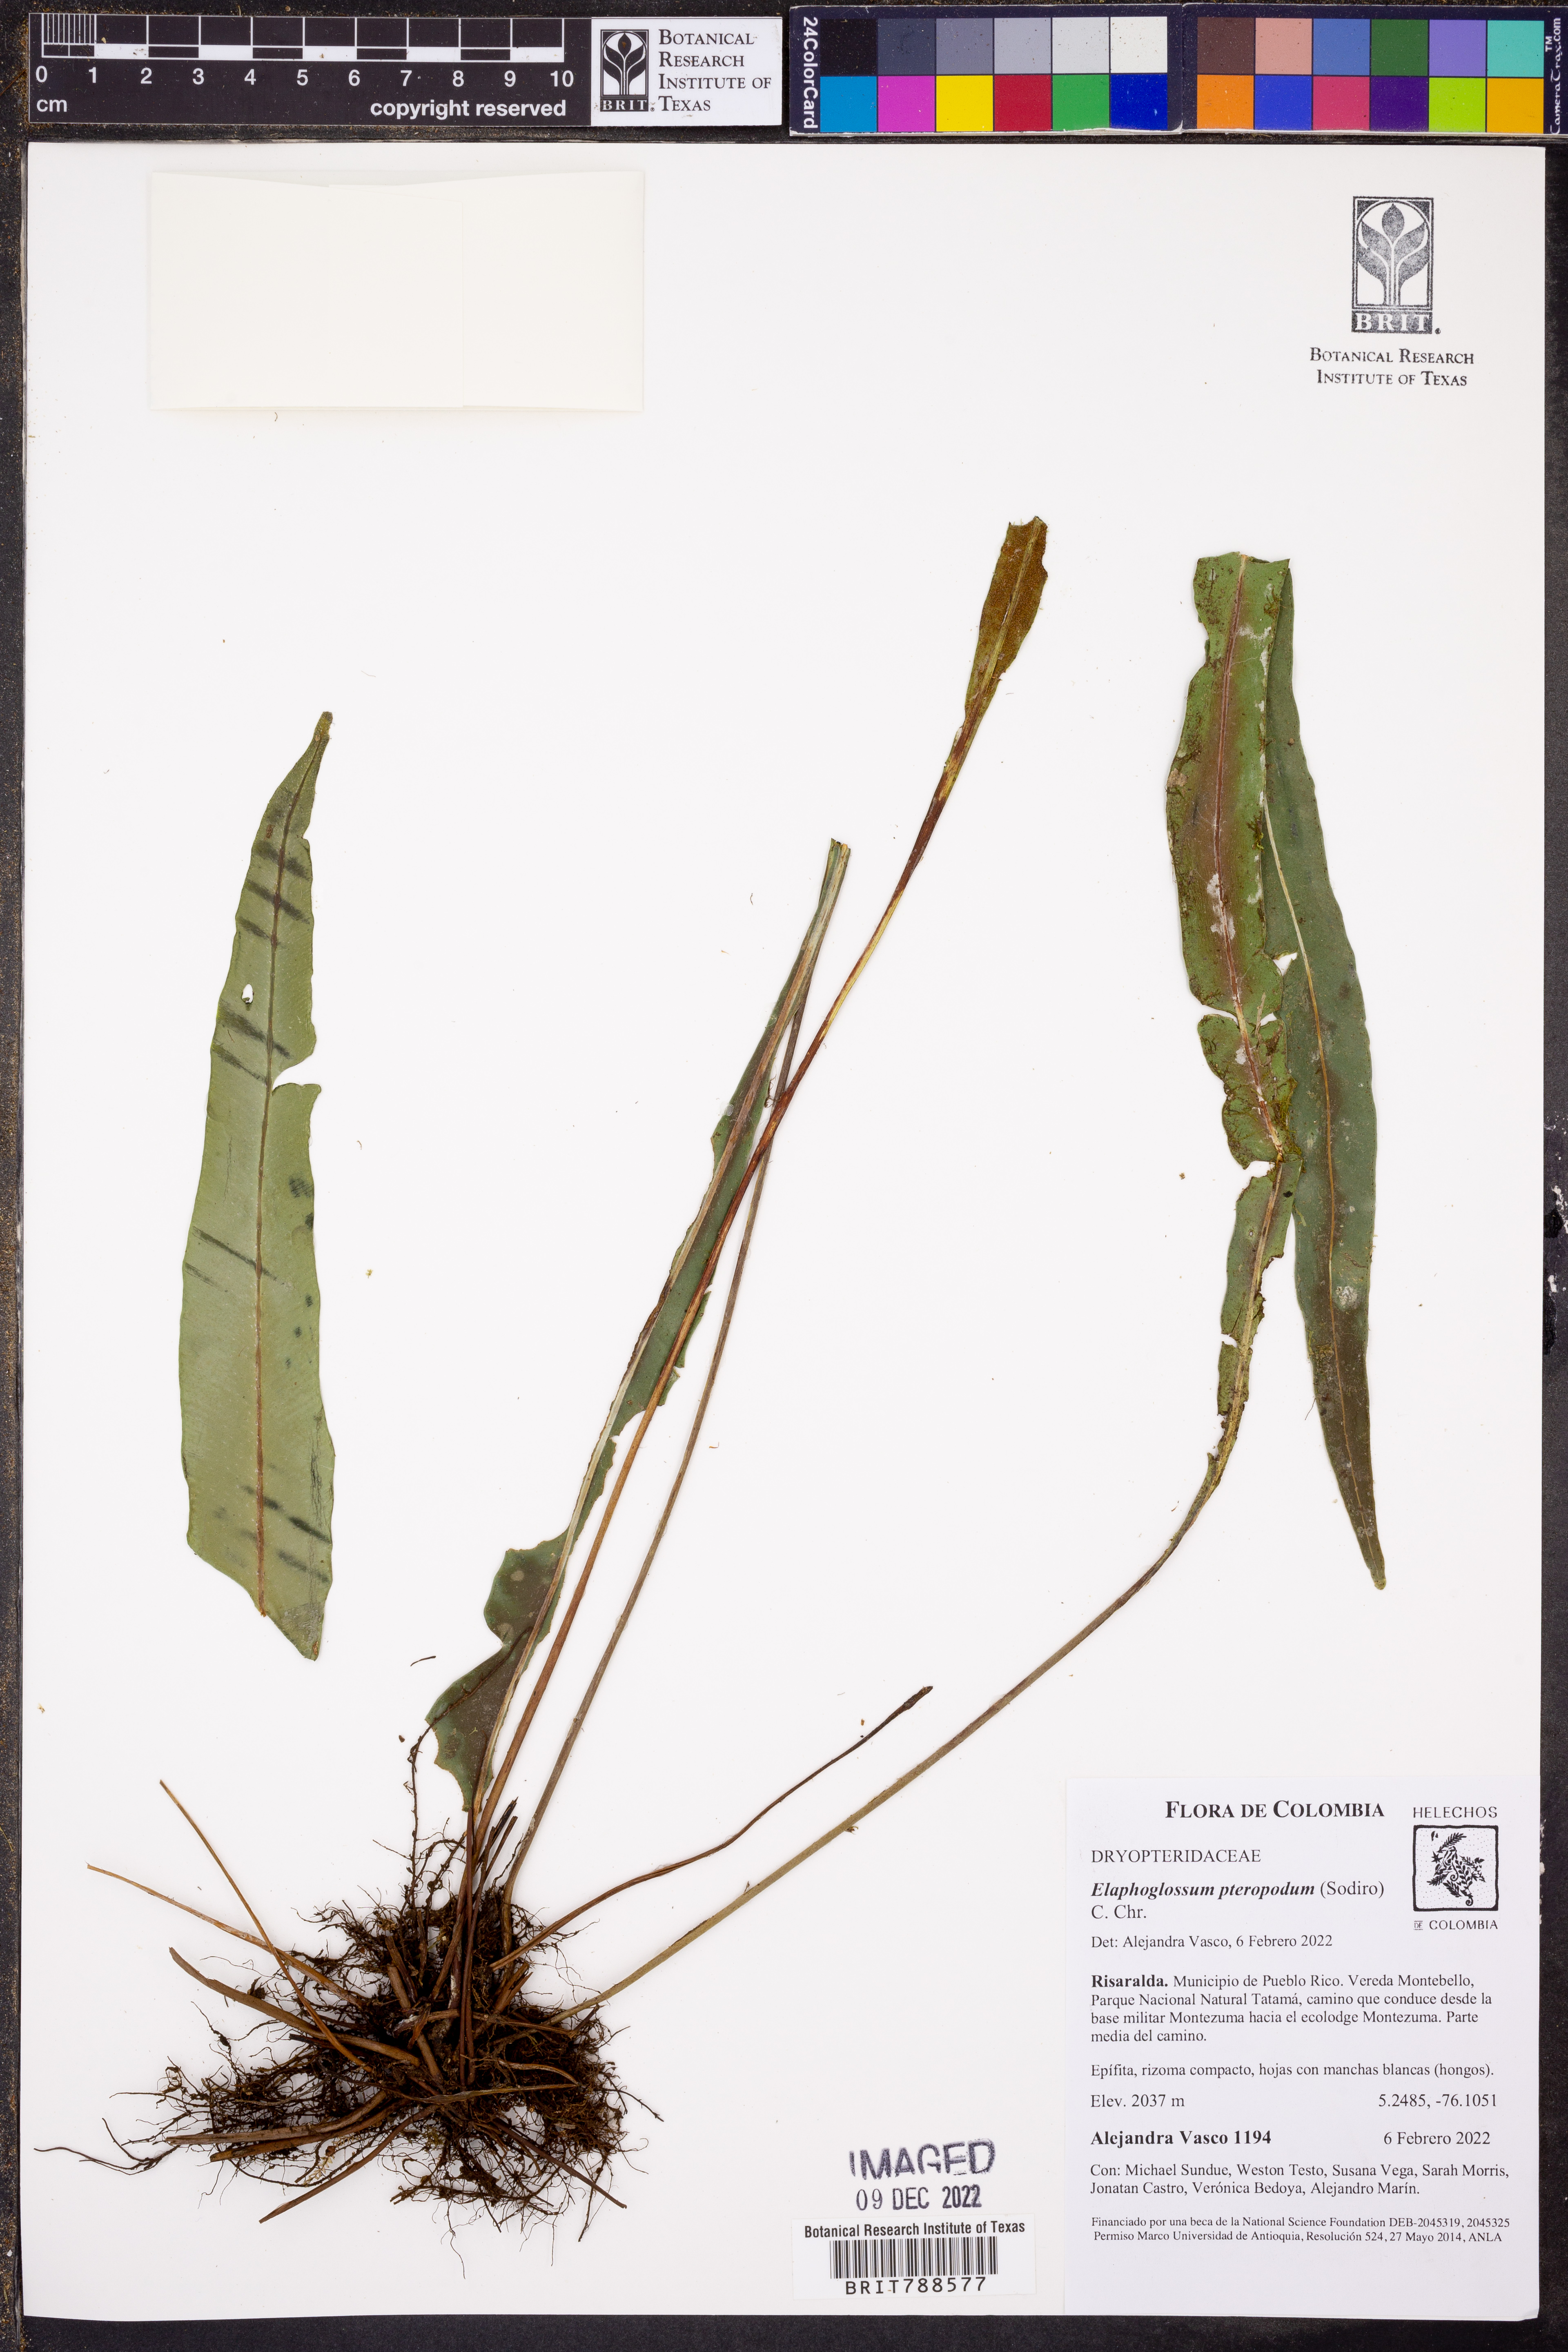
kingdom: Plantae
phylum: Tracheophyta
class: Polypodiopsida
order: Polypodiales
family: Dryopteridaceae
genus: Elaphoglossum
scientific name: Elaphoglossum pteropodum
